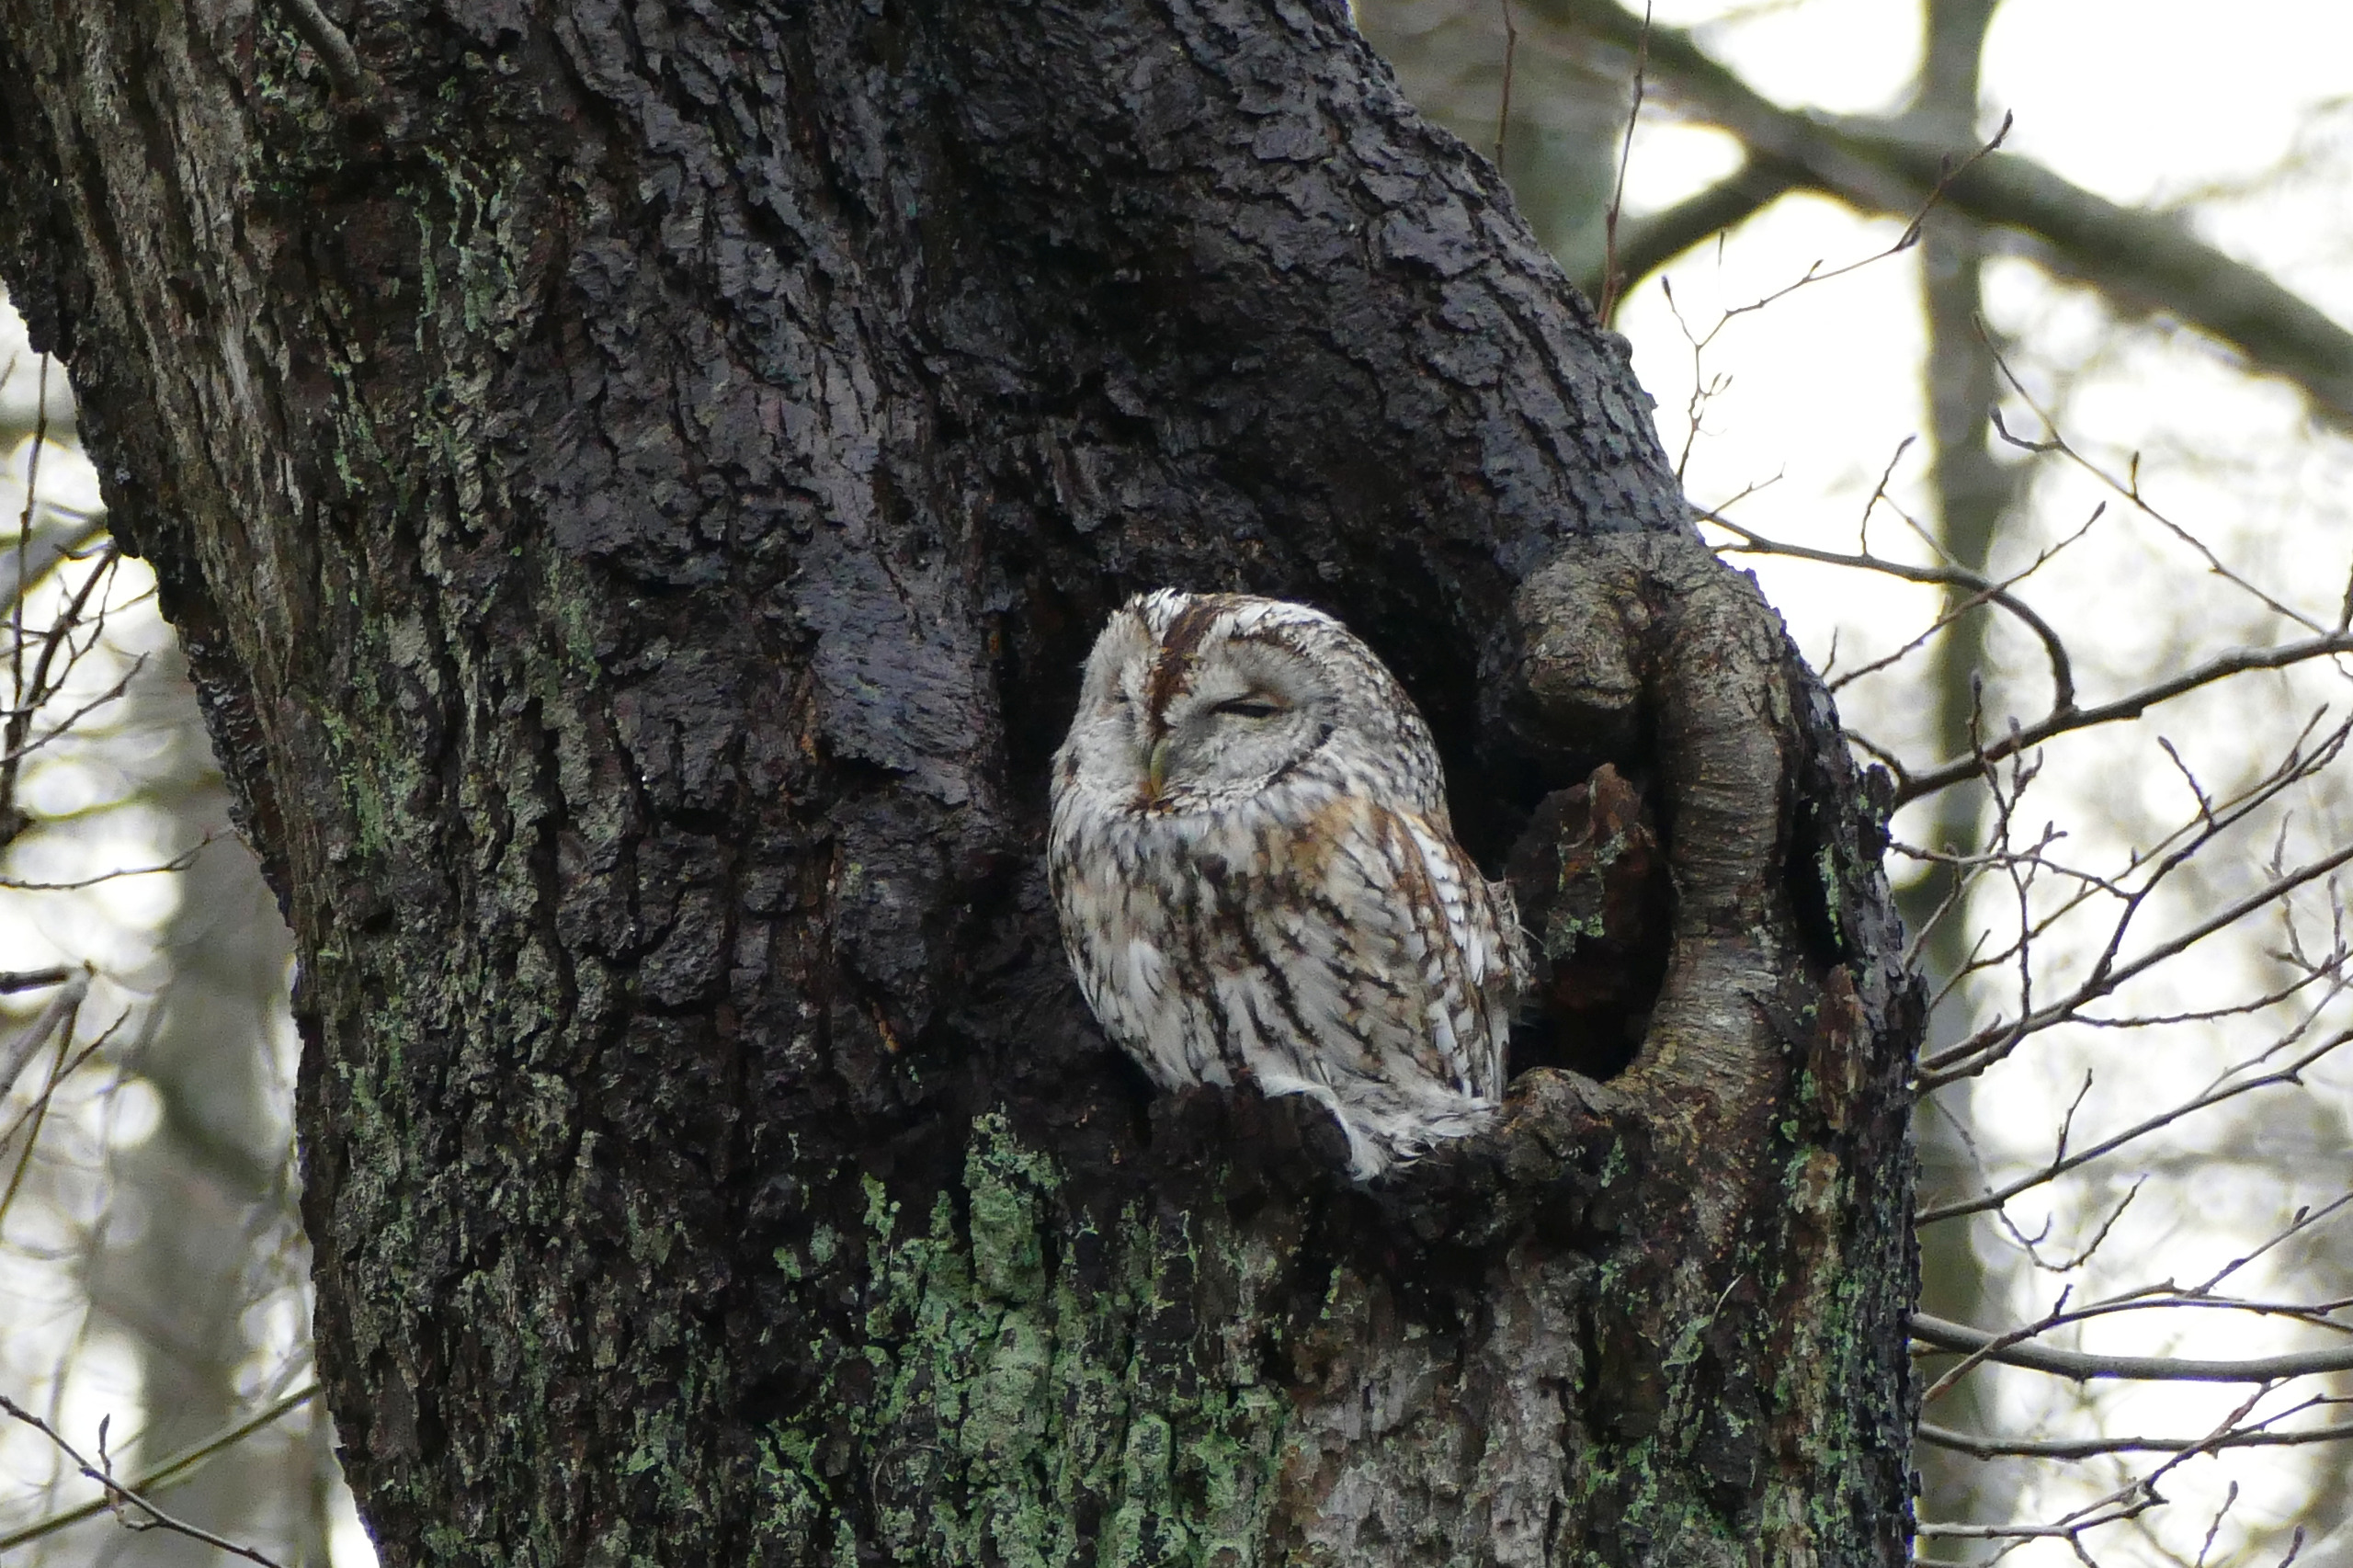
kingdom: Animalia
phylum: Chordata
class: Aves
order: Strigiformes
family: Strigidae
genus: Strix
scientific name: Strix aluco
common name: Natugle
